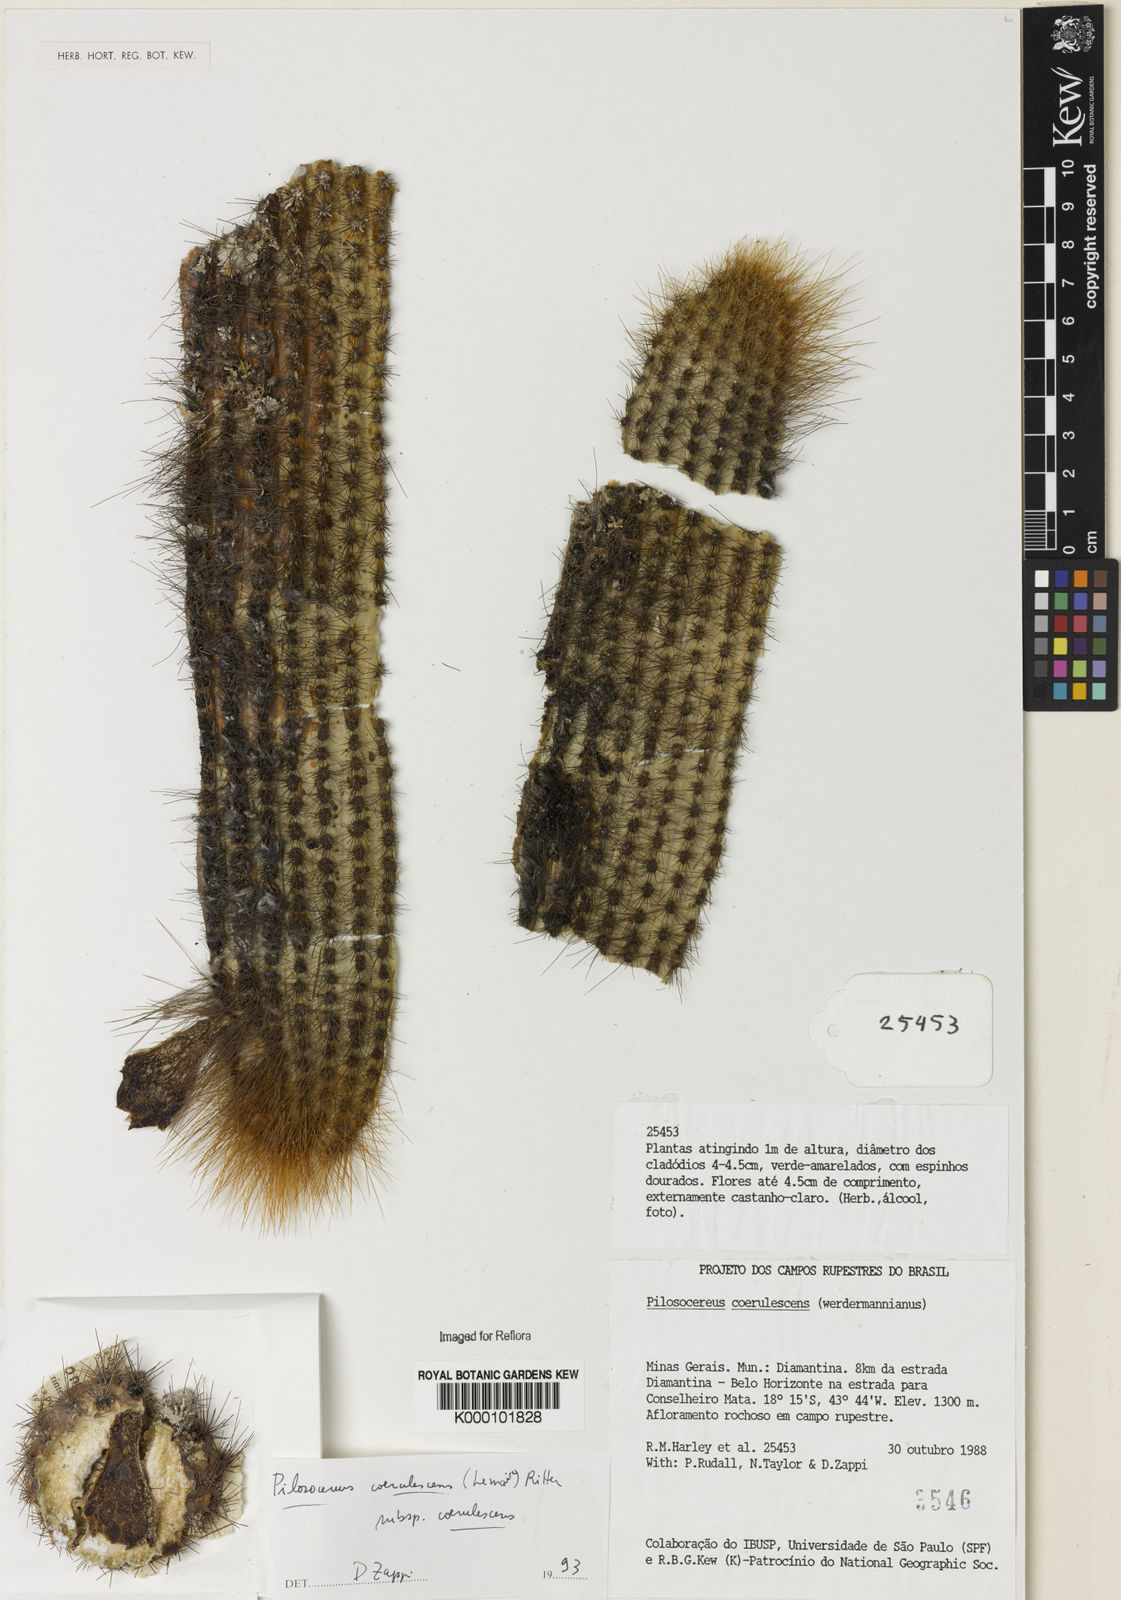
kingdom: Plantae
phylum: Tracheophyta
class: Magnoliopsida
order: Caryophyllales
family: Cactaceae
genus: Pilosocereus
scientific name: Pilosocereus aurisetus
